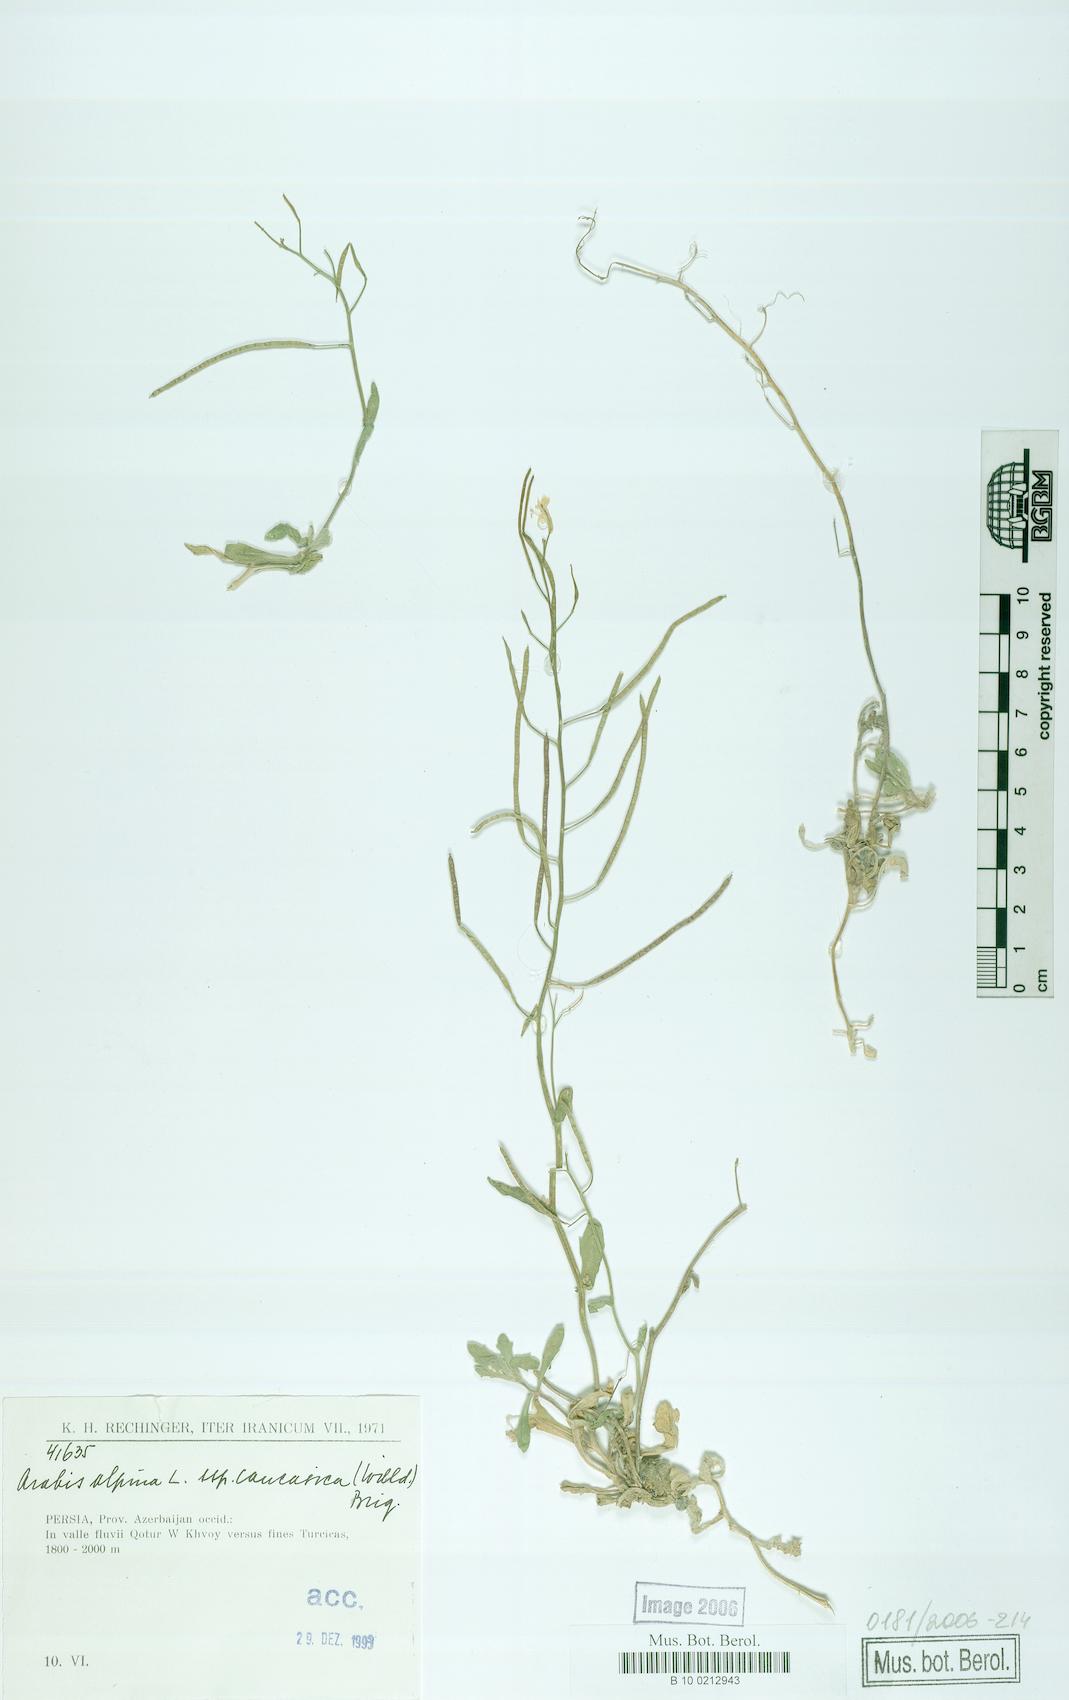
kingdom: Plantae
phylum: Tracheophyta
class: Magnoliopsida
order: Brassicales
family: Brassicaceae
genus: Arabis
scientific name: Arabis caucasica
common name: Gray rockcress
